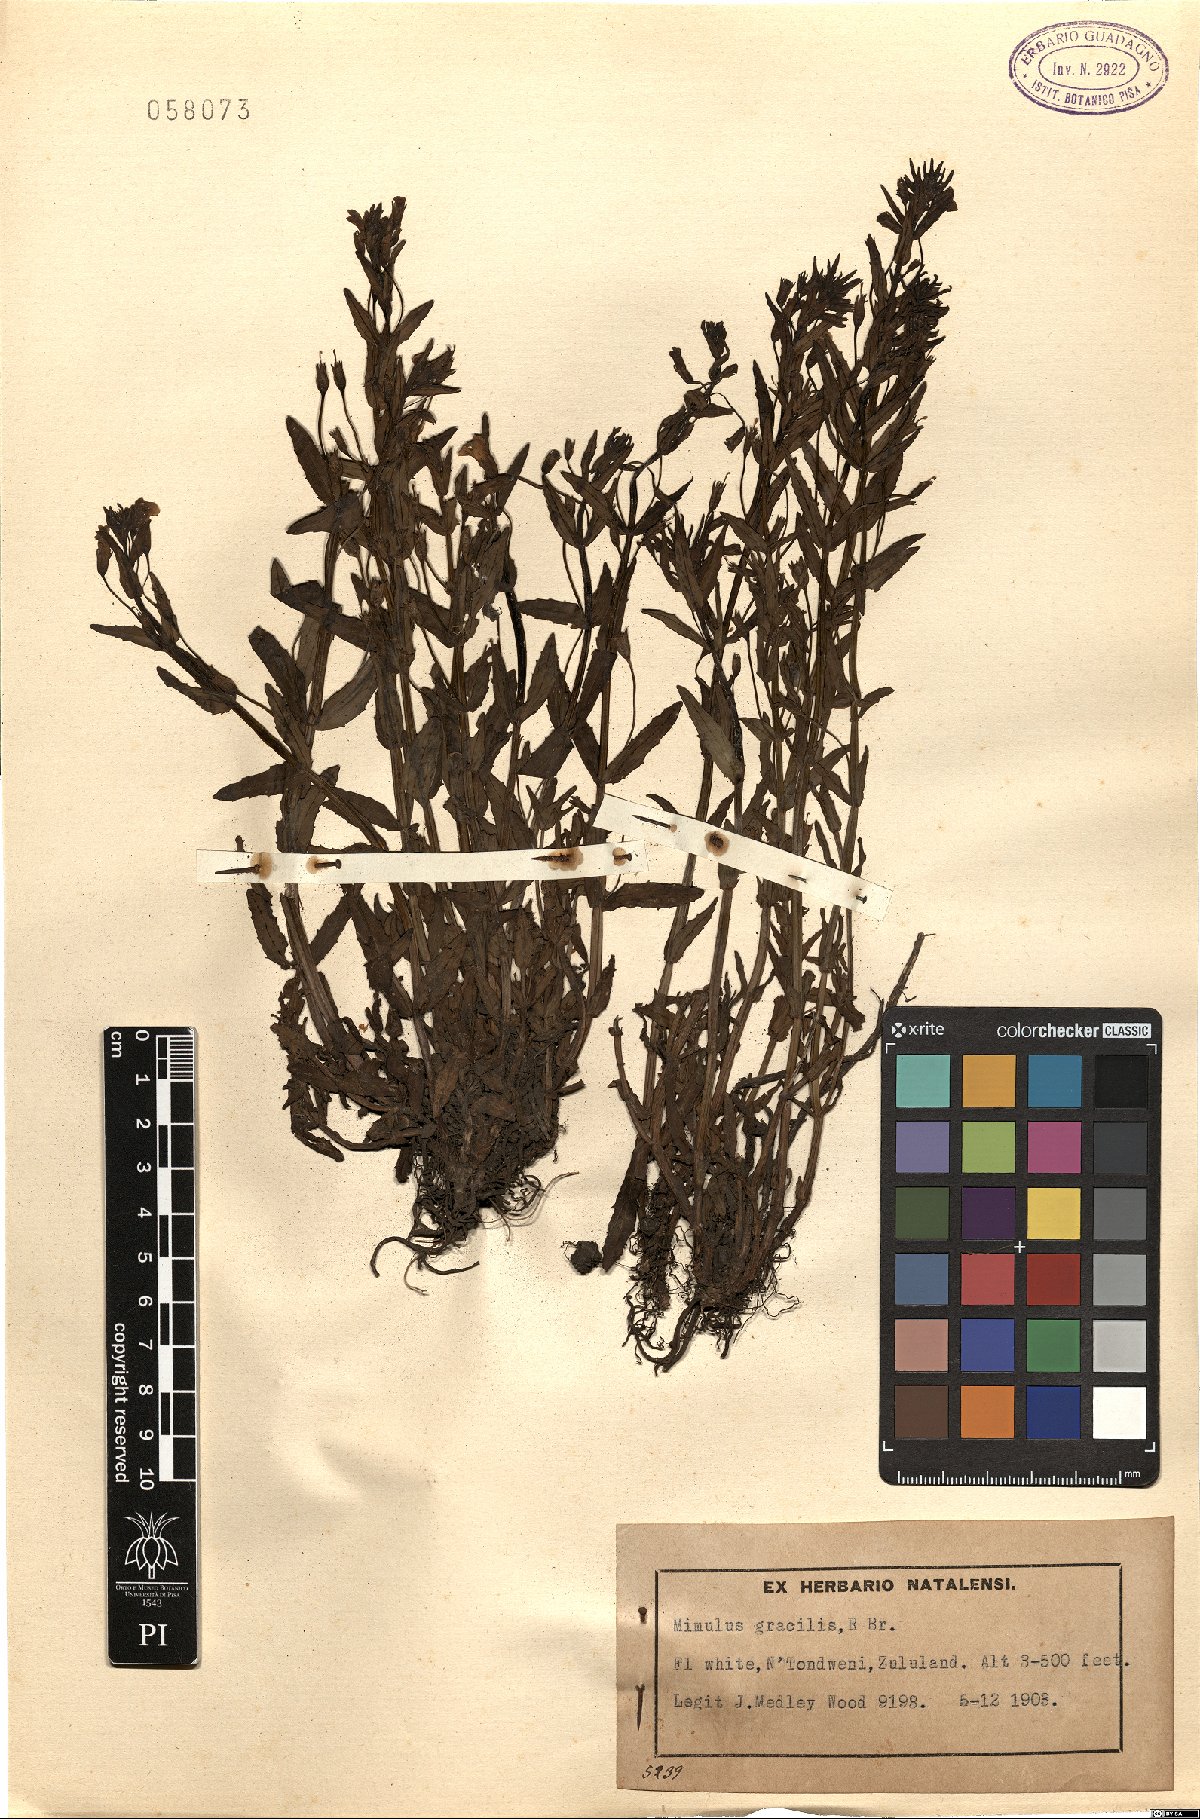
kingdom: Plantae
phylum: Tracheophyta
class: Magnoliopsida
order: Lamiales
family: Phrymaceae
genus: Mimulus
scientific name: Mimulus gracilis
